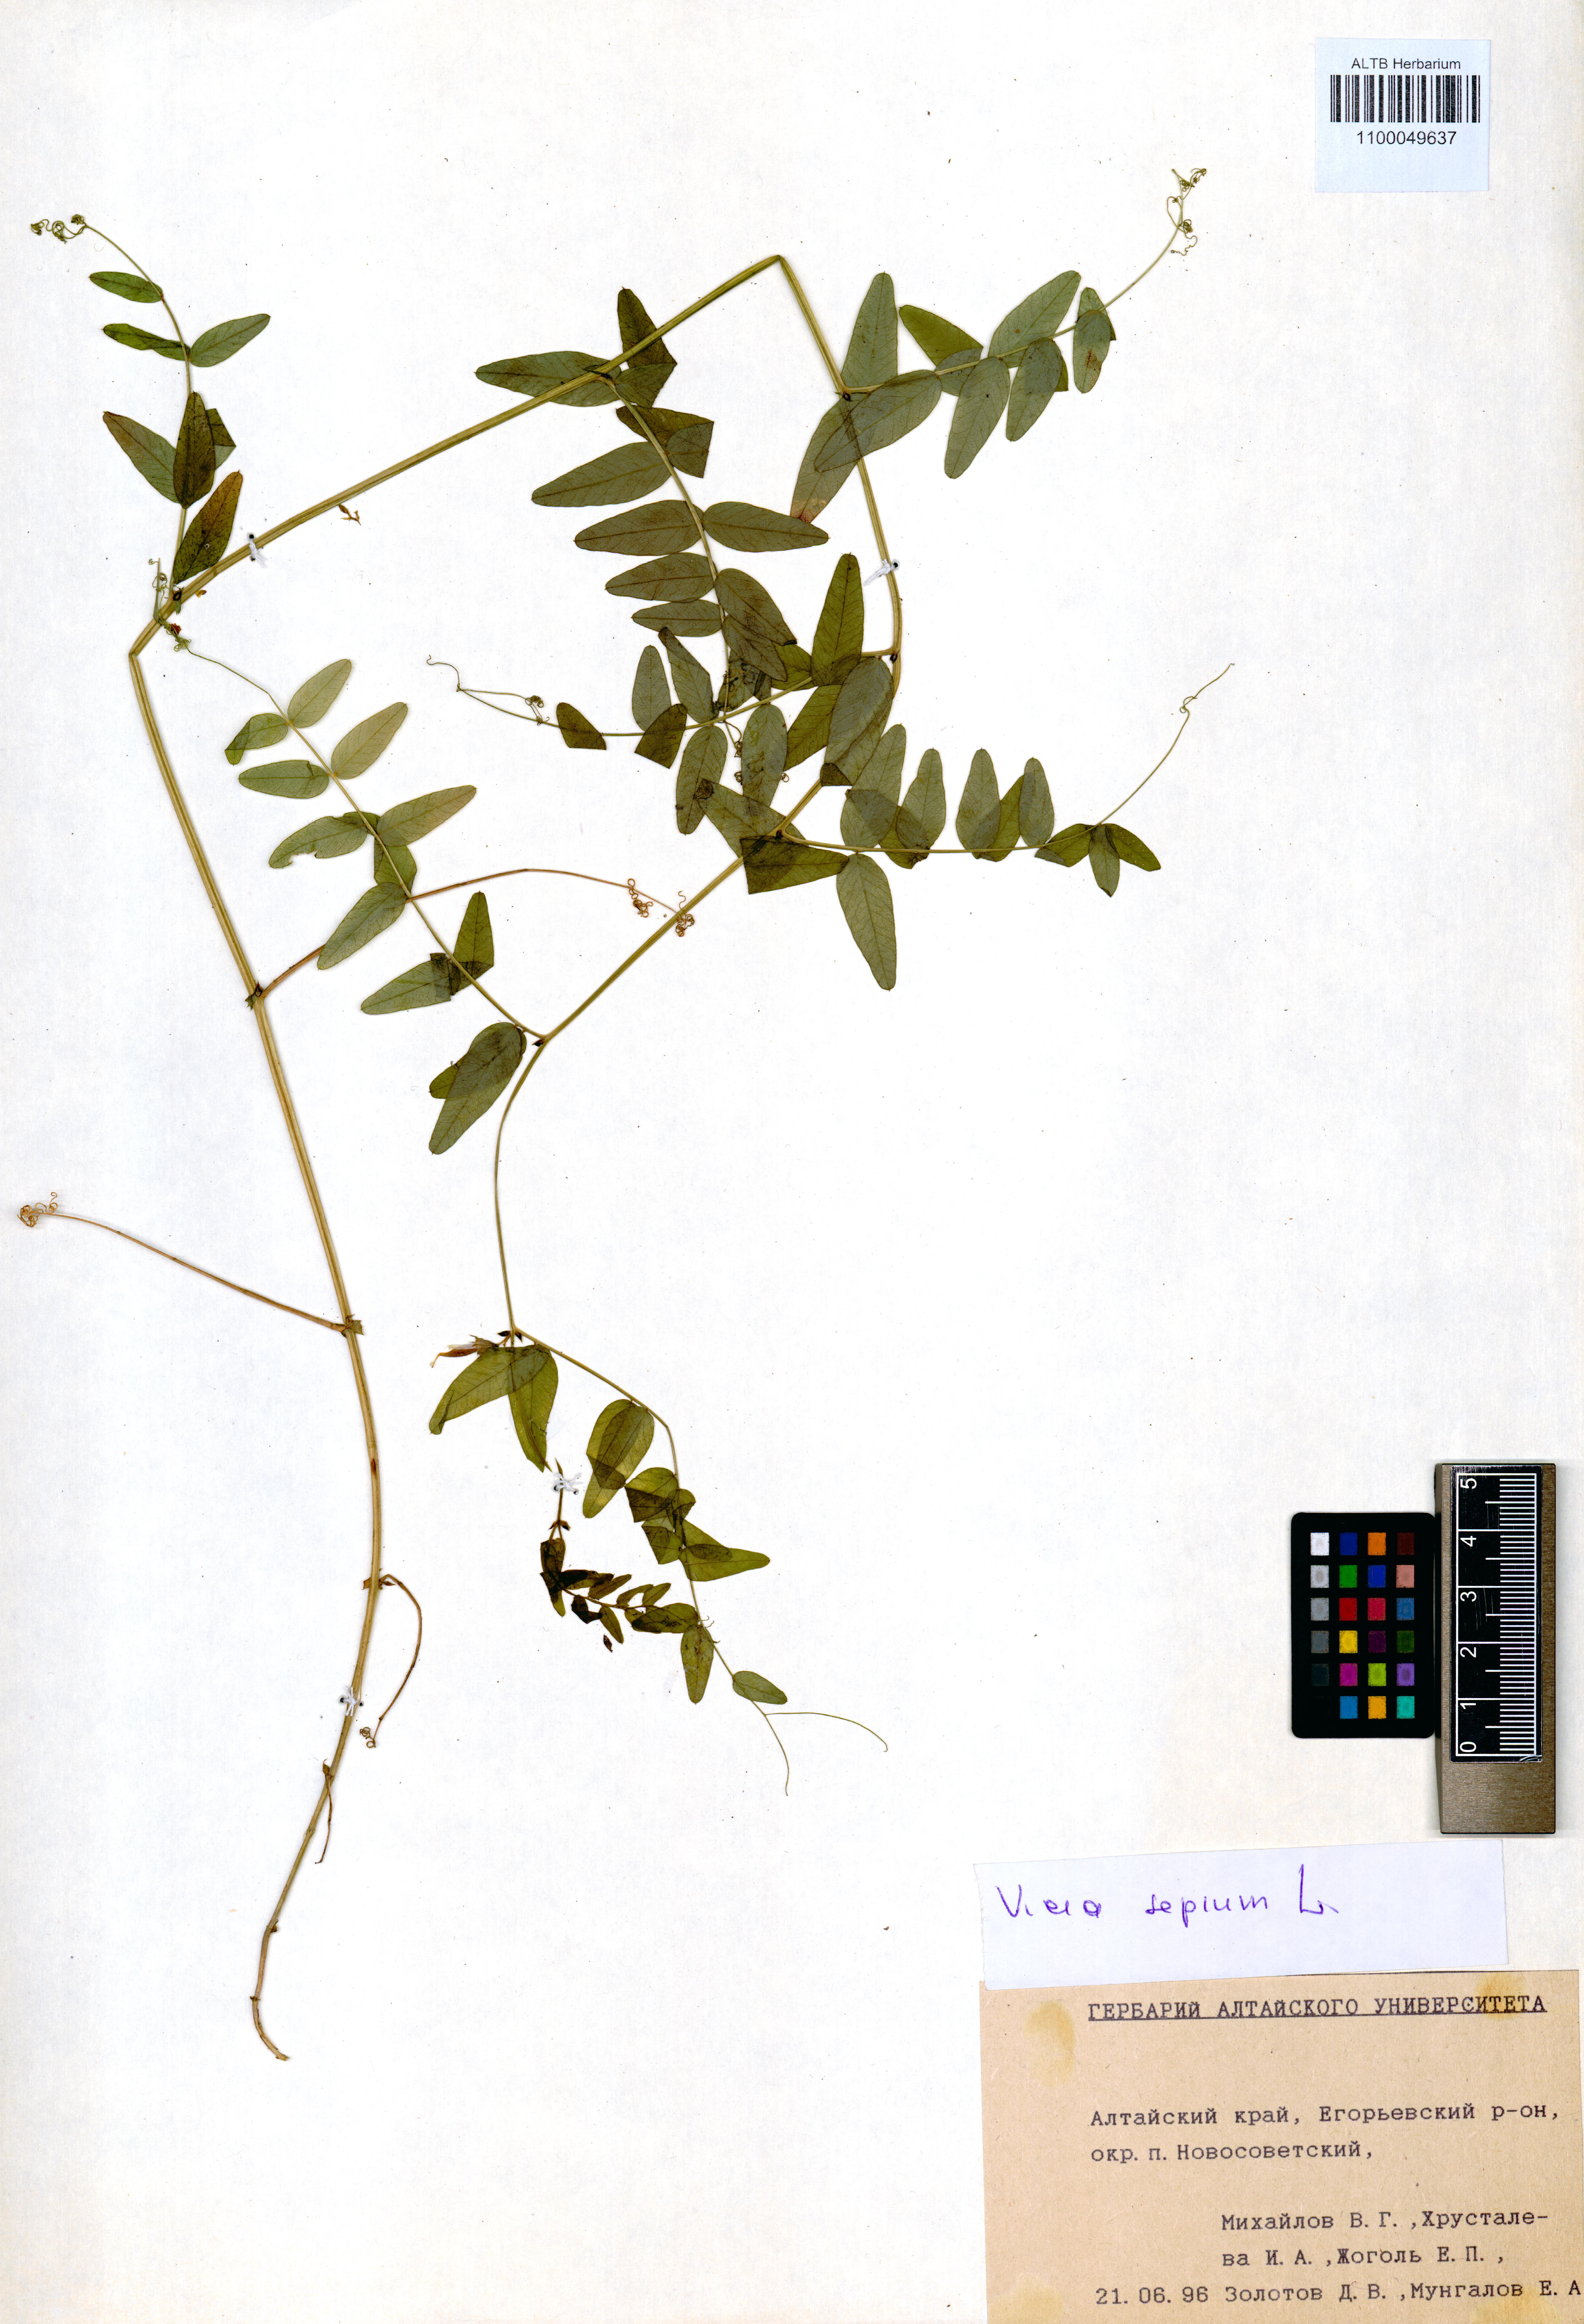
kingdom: Plantae
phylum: Tracheophyta
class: Magnoliopsida
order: Fabales
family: Fabaceae
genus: Vicia
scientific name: Vicia sepium
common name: Bush vetch
